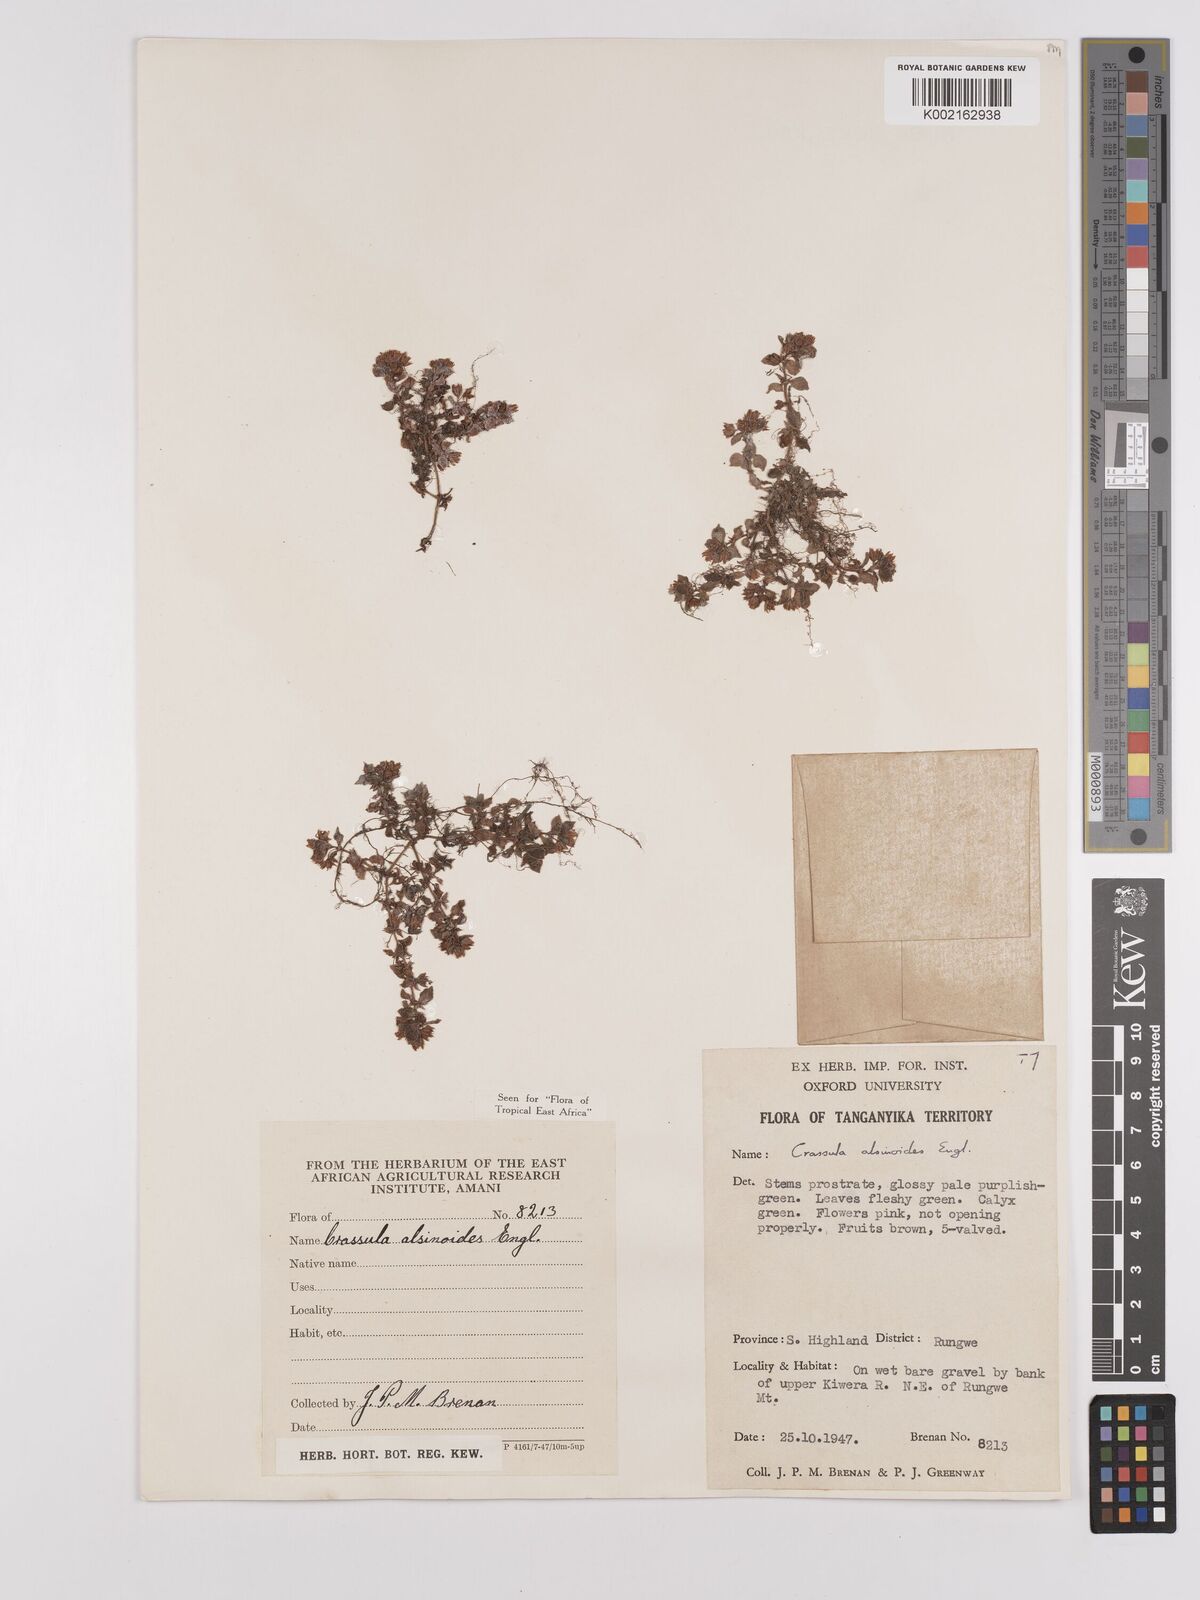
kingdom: Plantae
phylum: Tracheophyta
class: Magnoliopsida
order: Saxifragales
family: Crassulaceae
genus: Crassula
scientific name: Crassula alsinoides
